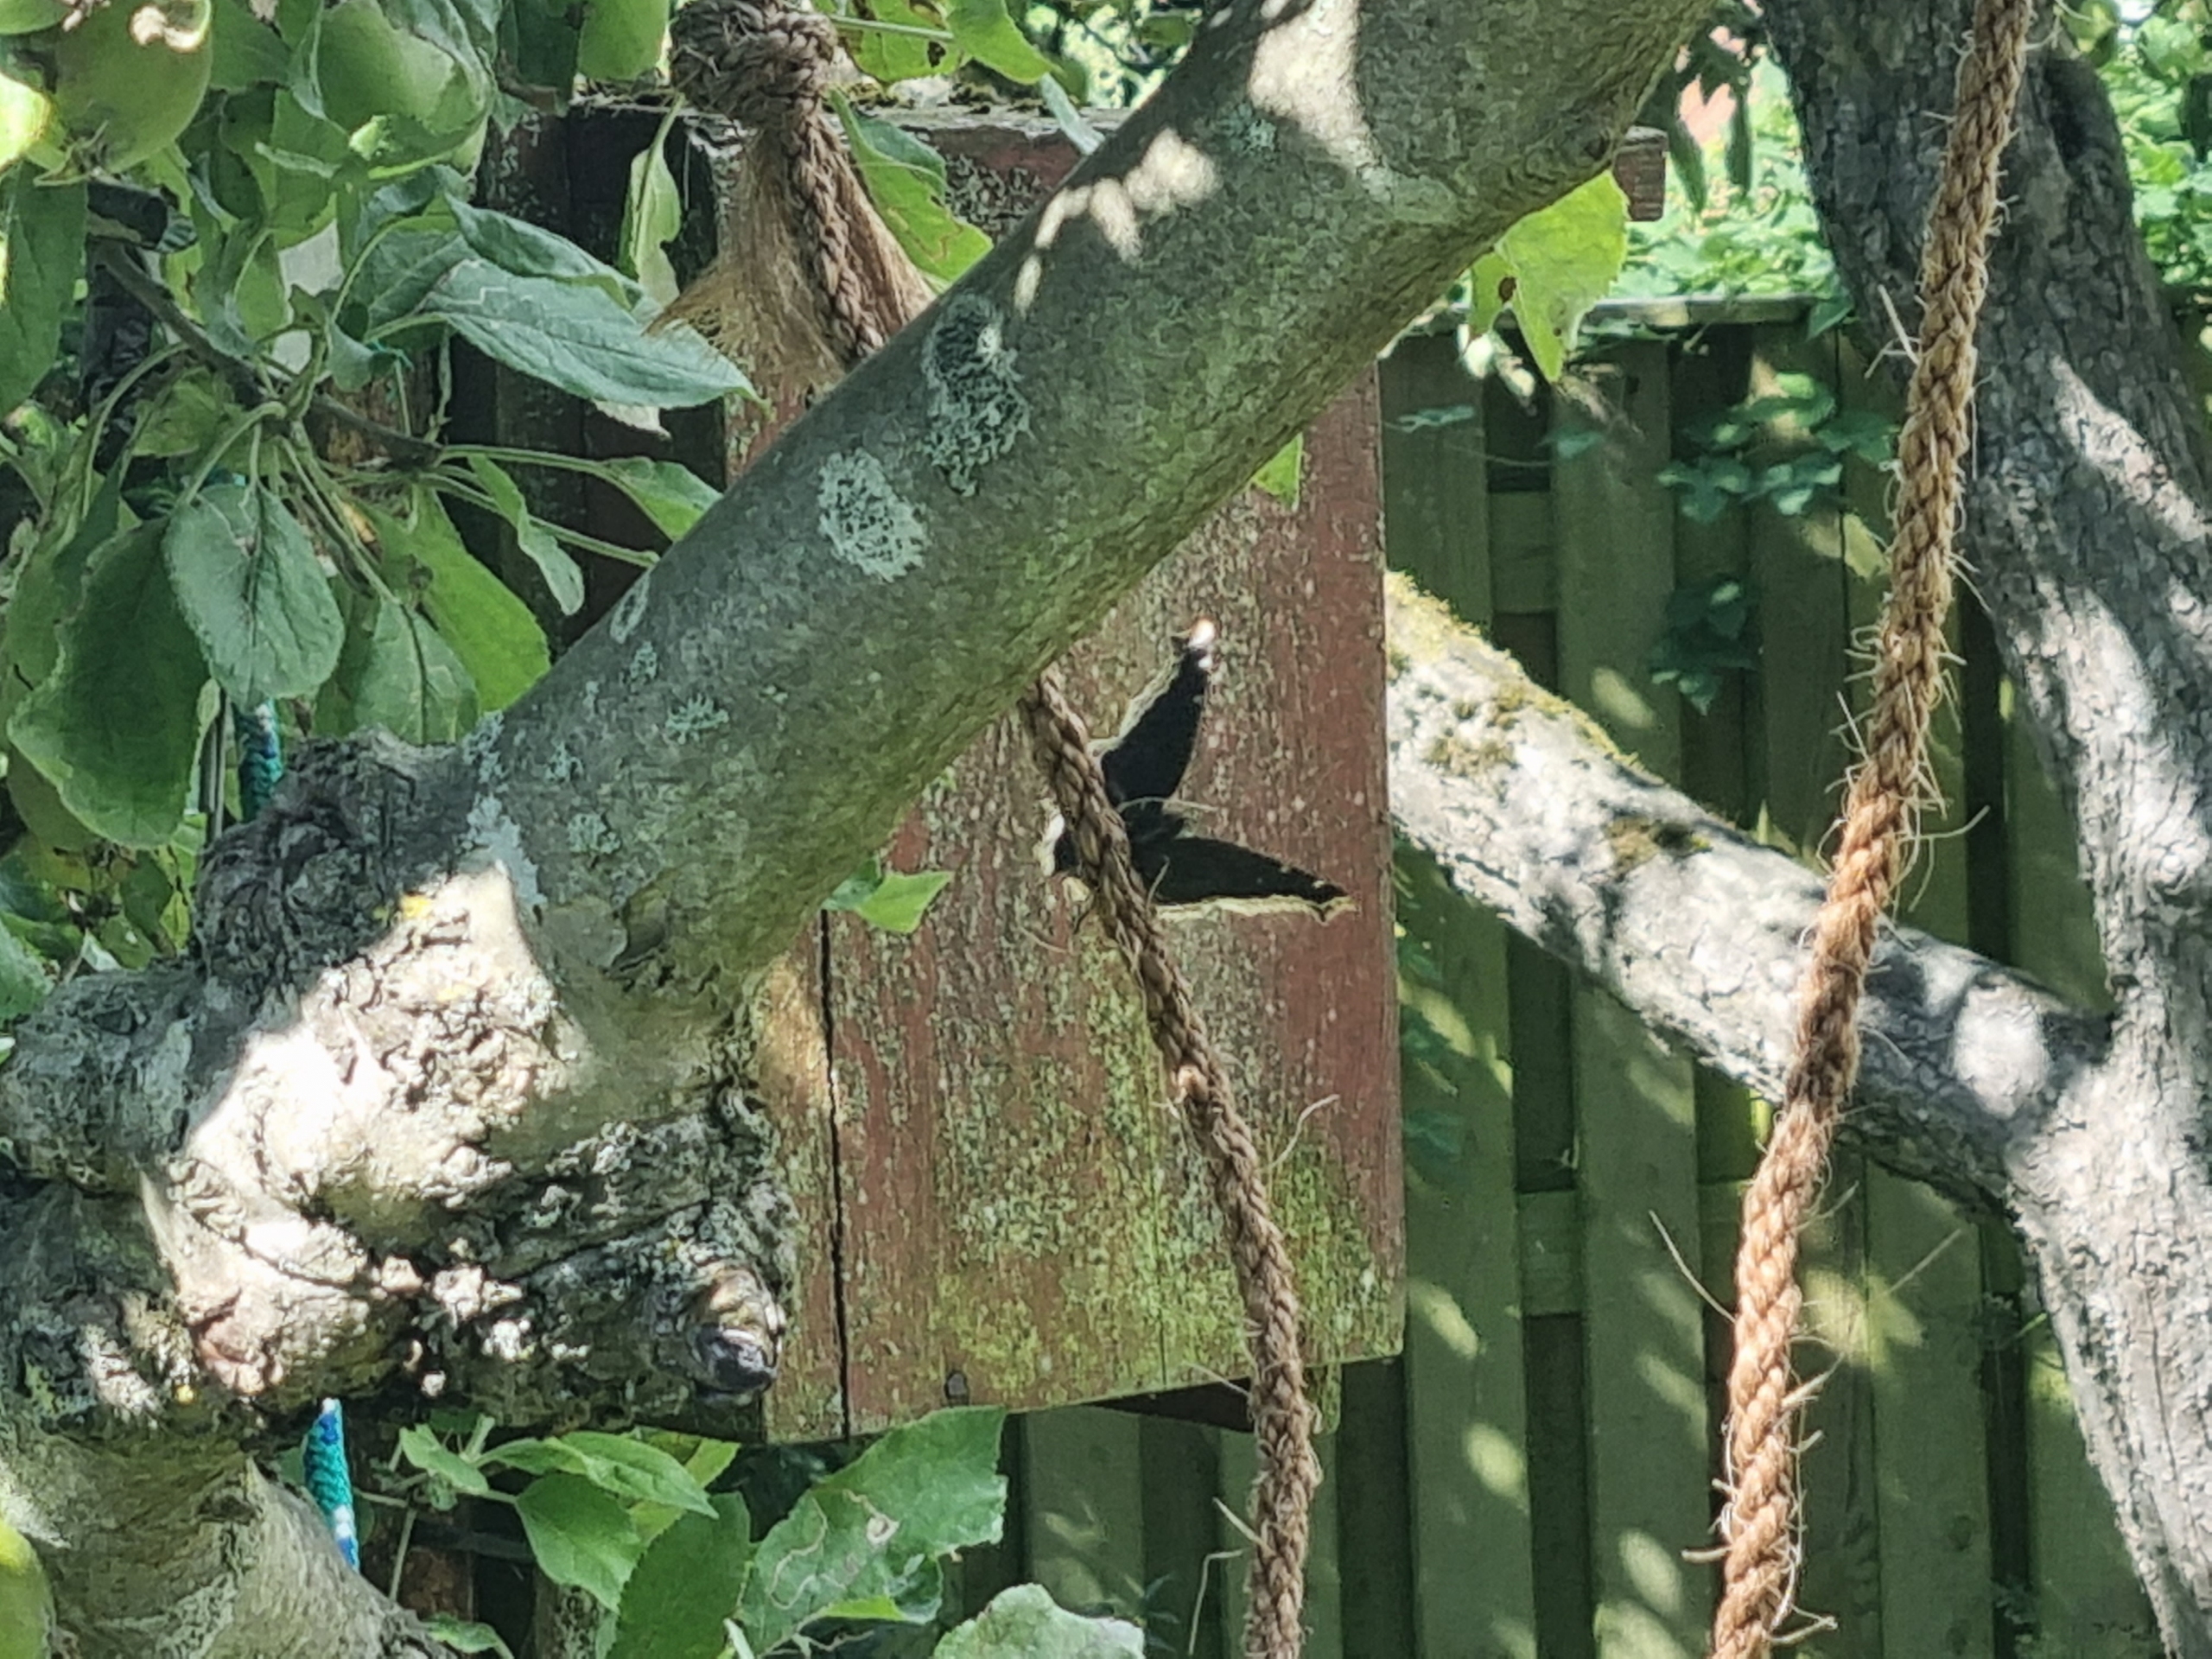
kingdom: Animalia
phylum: Arthropoda
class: Insecta
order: Lepidoptera
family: Nymphalidae
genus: Nymphalis
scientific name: Nymphalis antiopa
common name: Sørgekåbe
